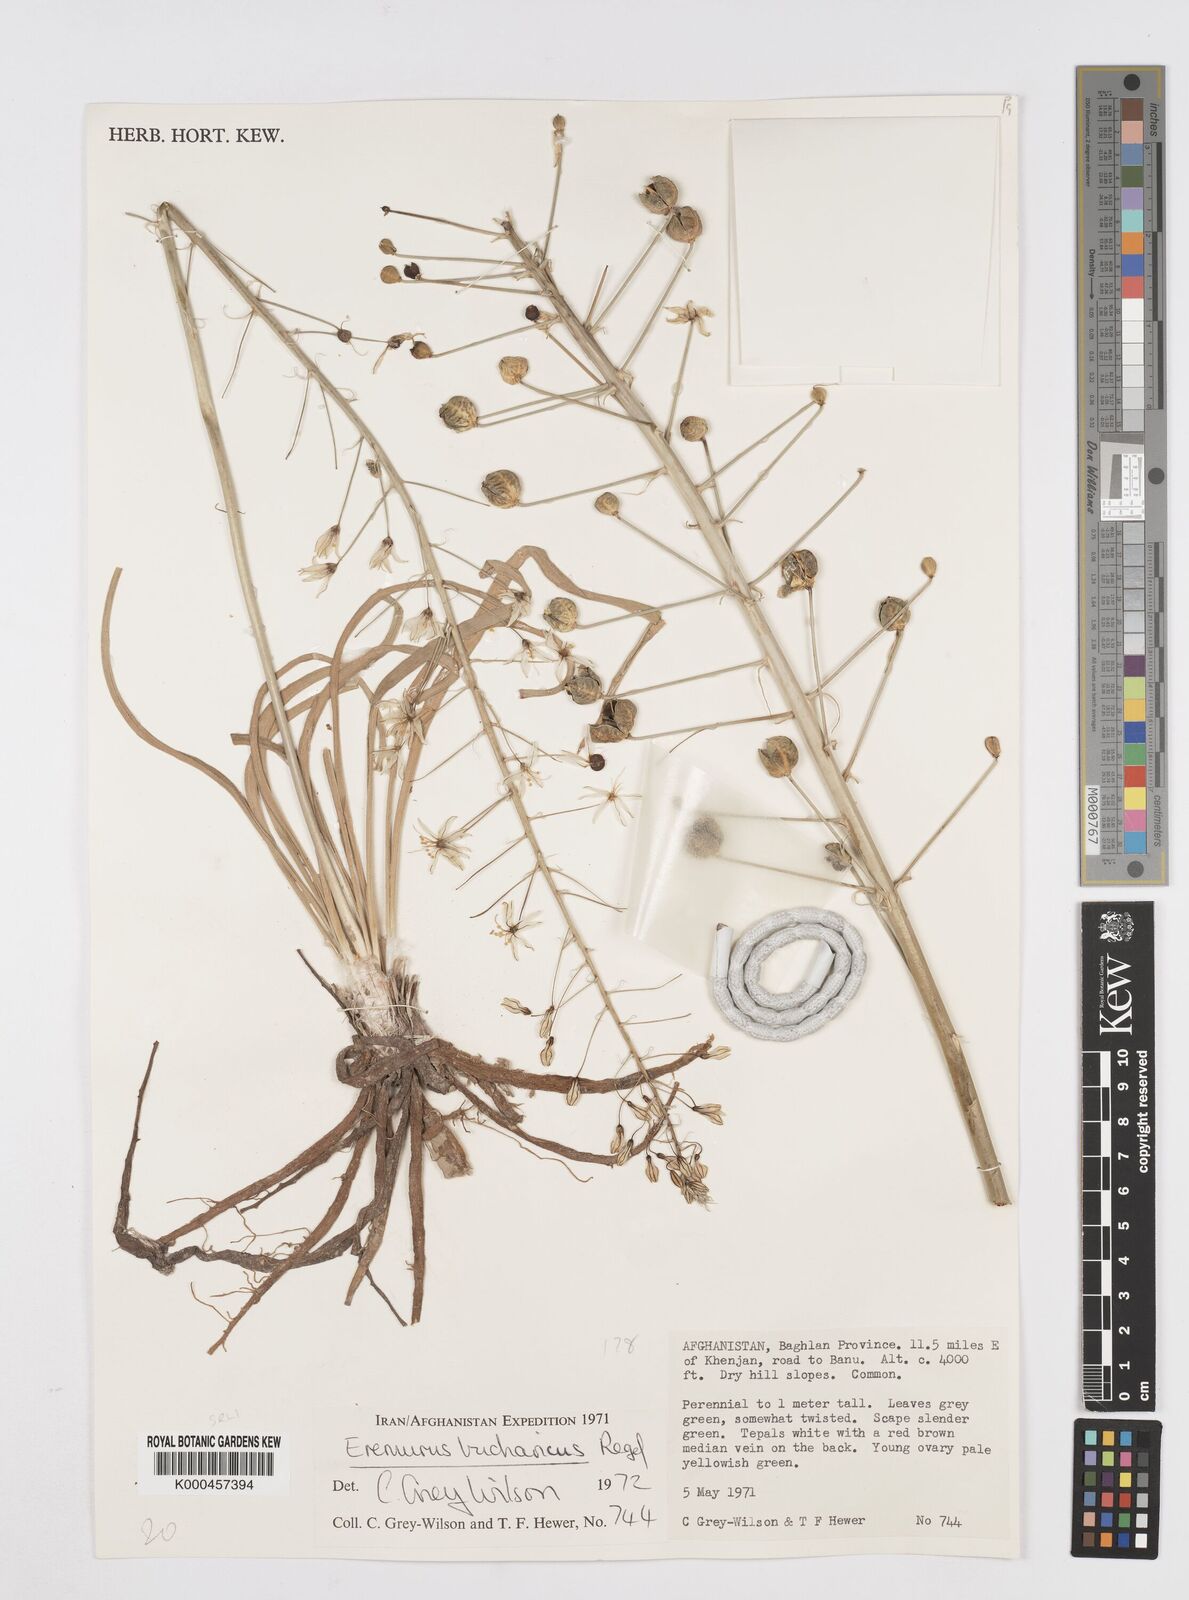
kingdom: Plantae
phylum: Tracheophyta
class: Liliopsida
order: Asparagales
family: Asphodelaceae
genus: Eremurus
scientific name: Eremurus bucharicus
